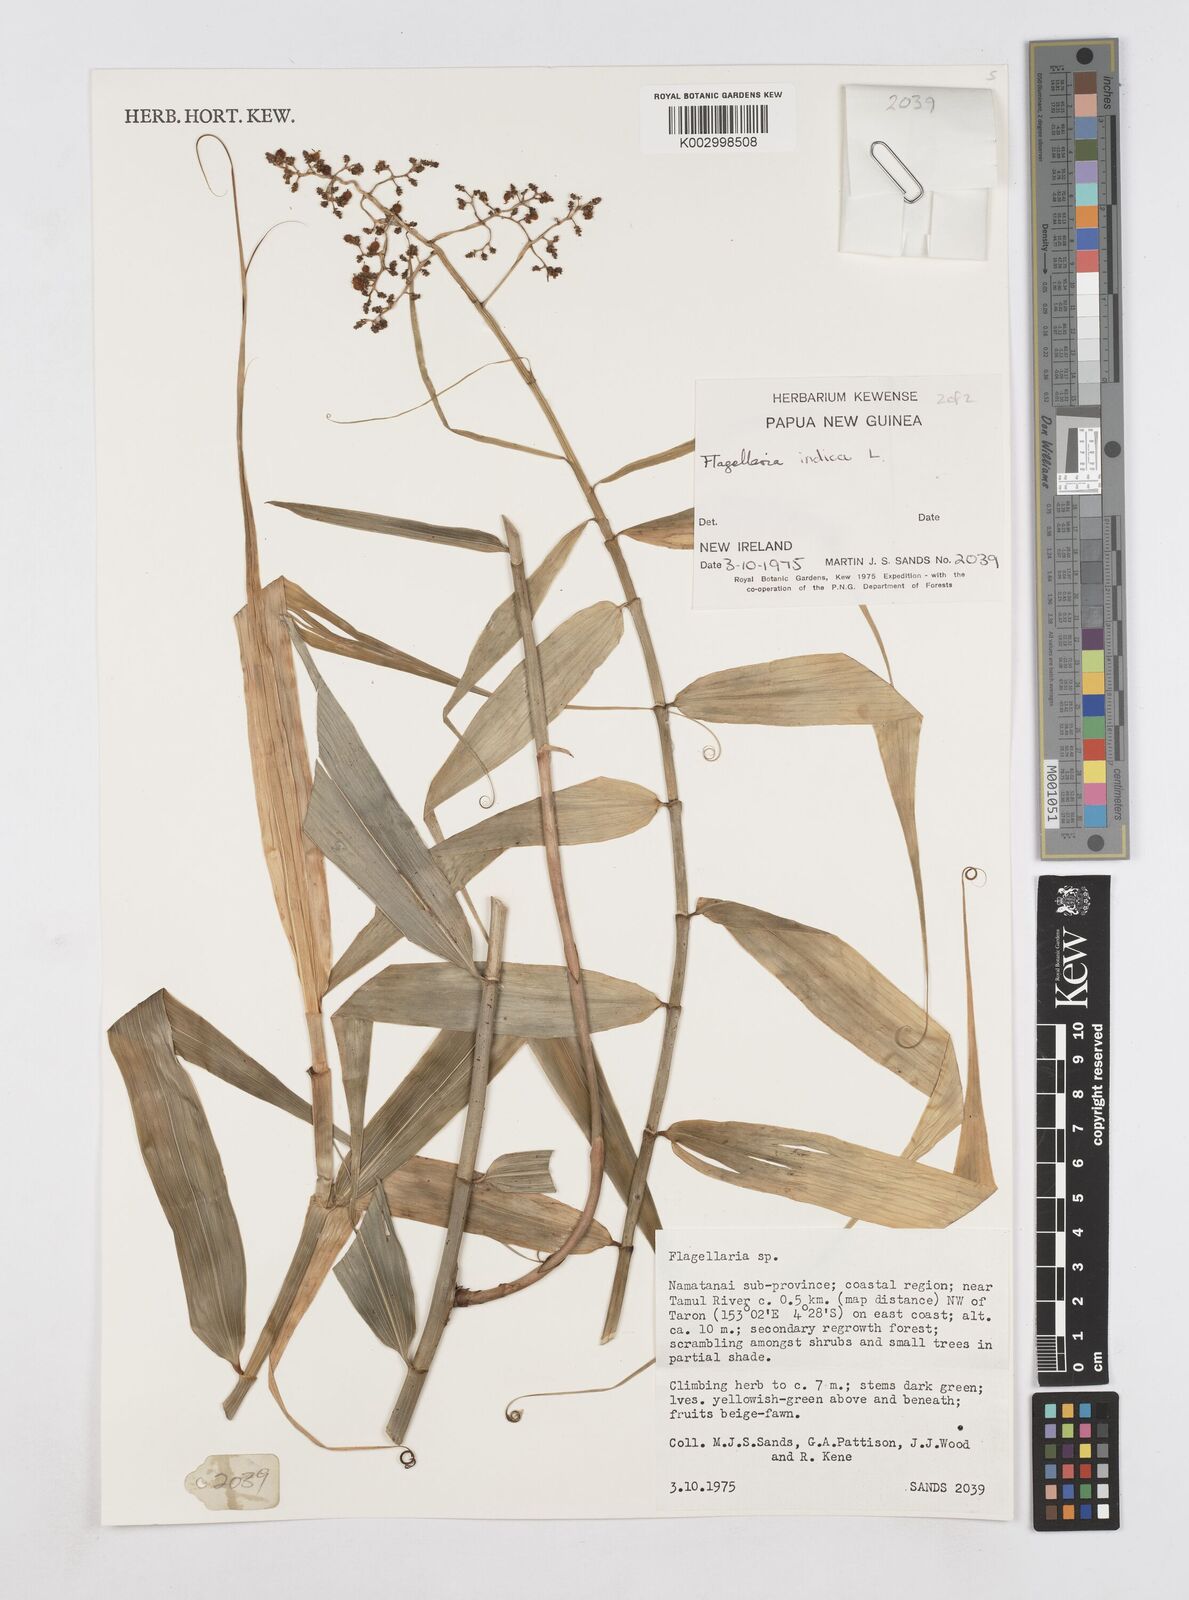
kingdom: Plantae
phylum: Tracheophyta
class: Liliopsida
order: Poales
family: Flagellariaceae
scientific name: Flagellariaceae
